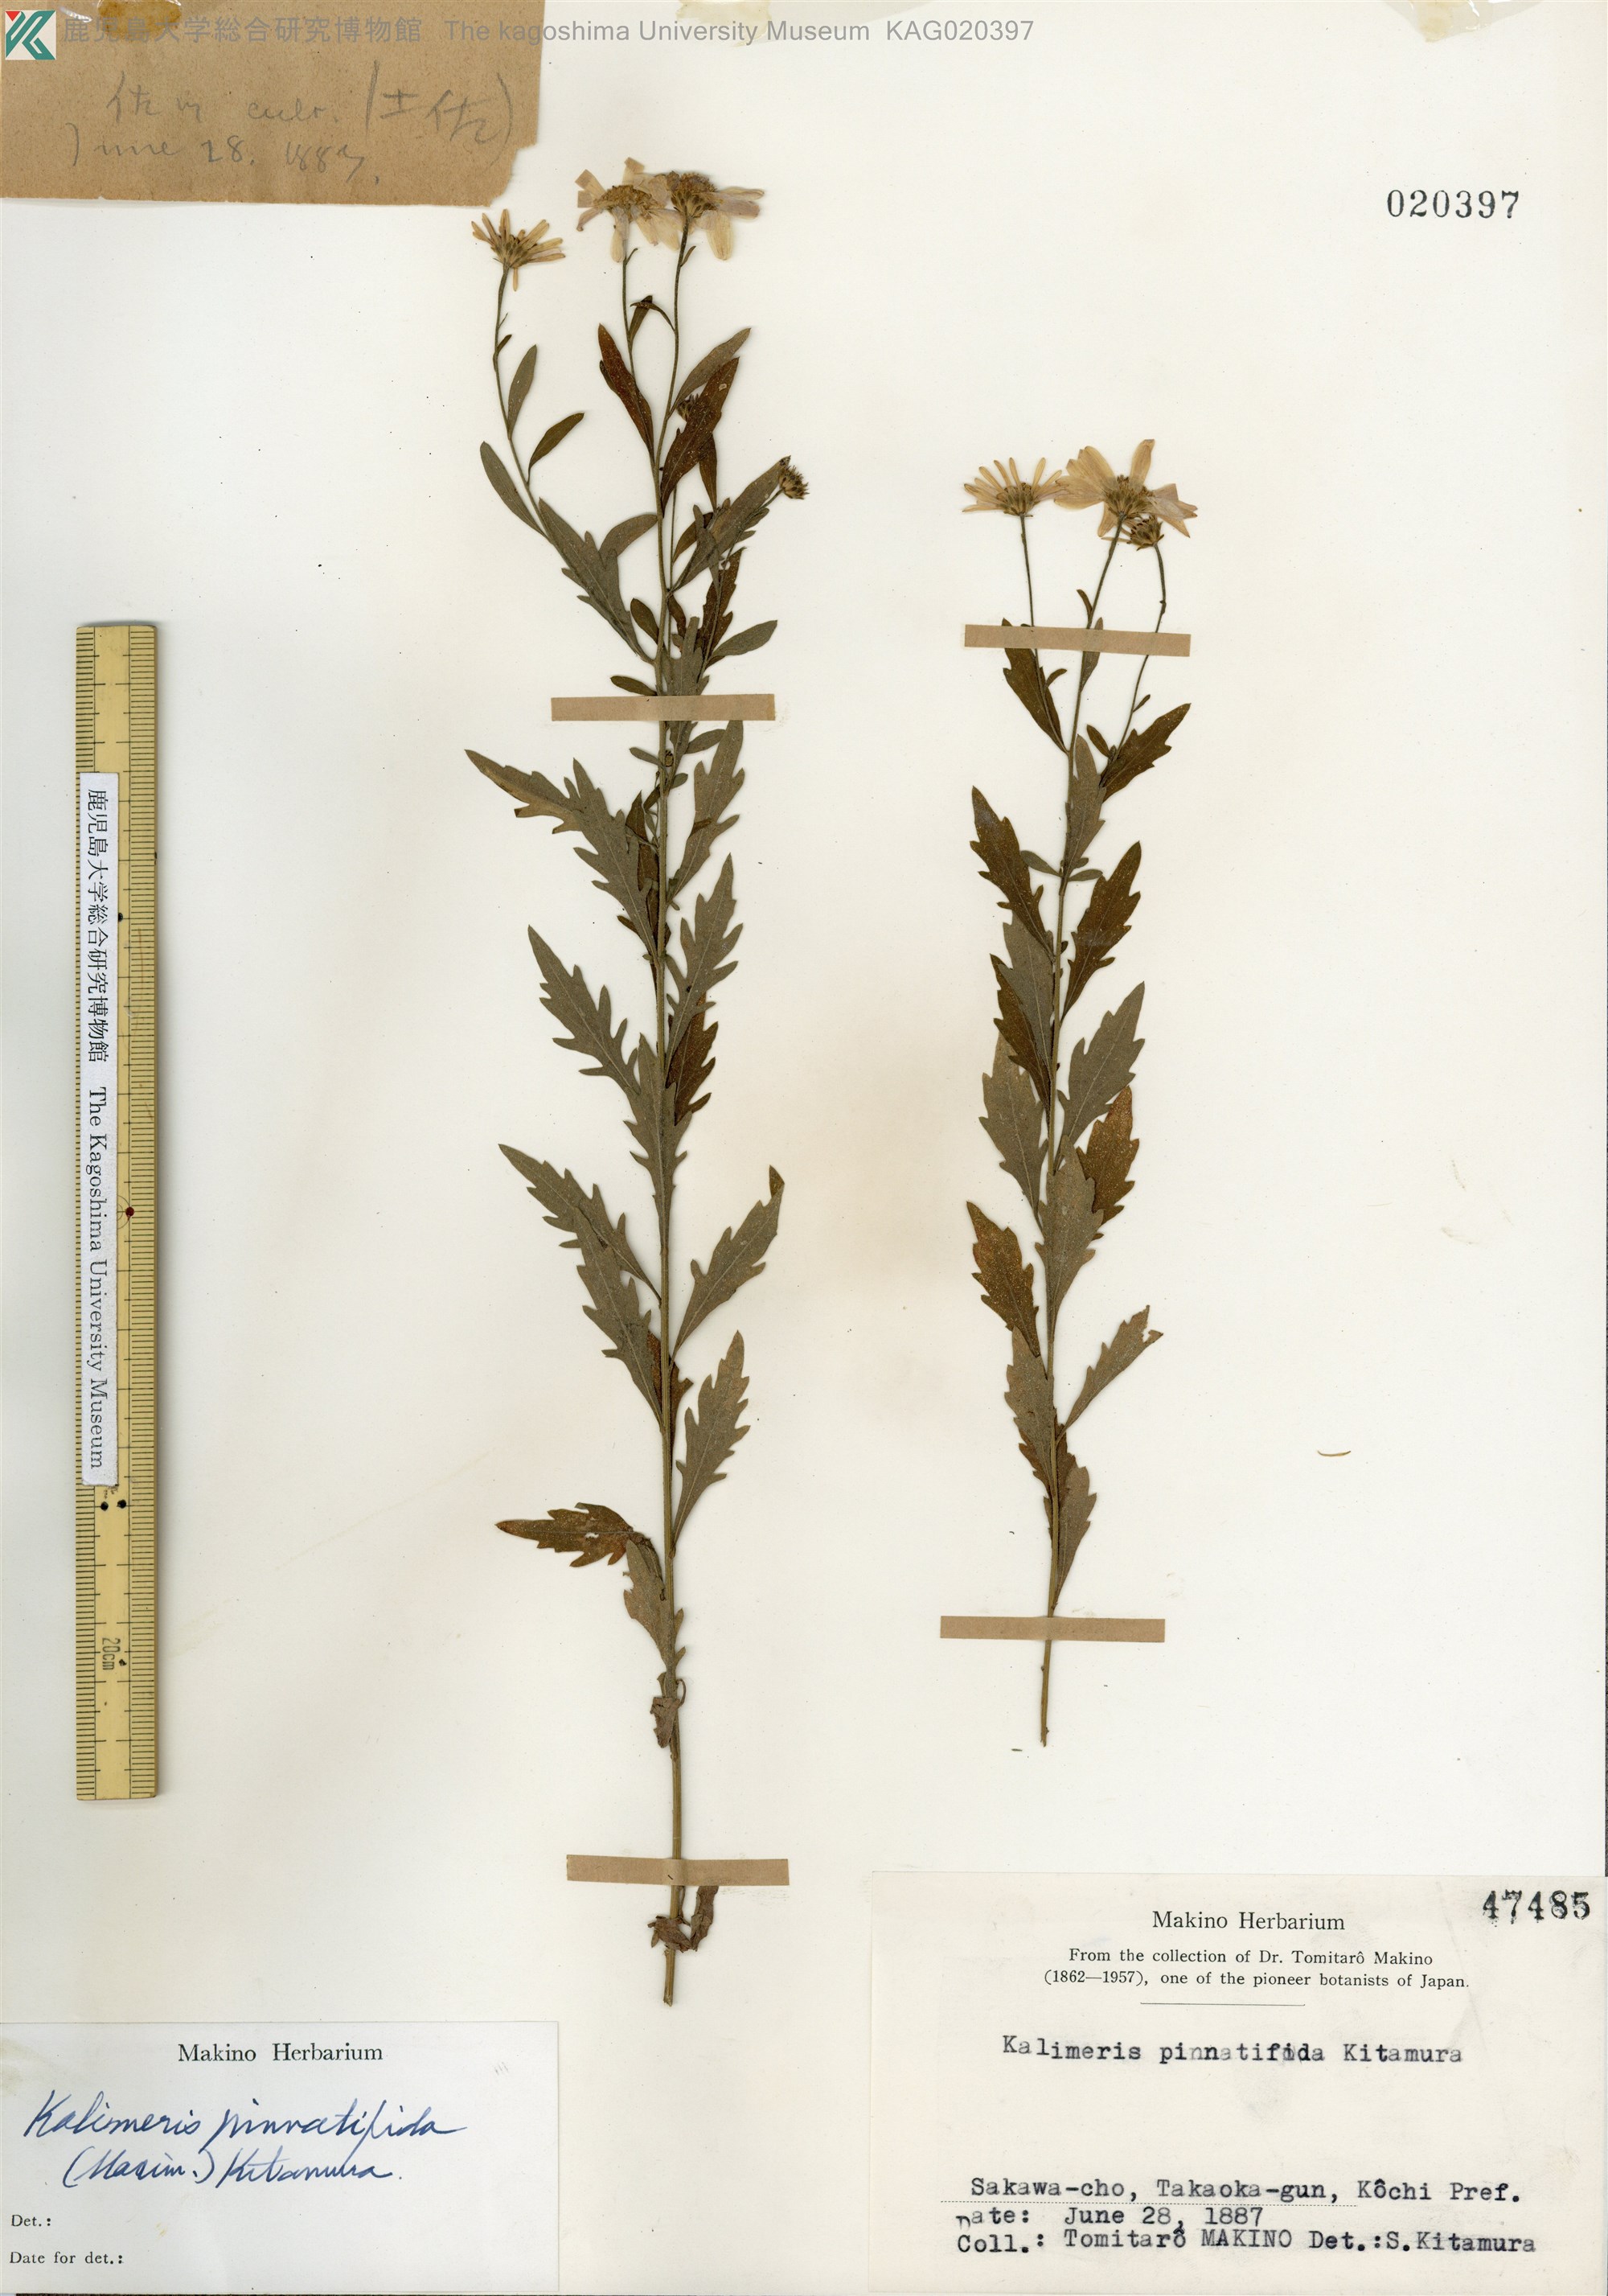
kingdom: Plantae
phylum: Tracheophyta
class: Magnoliopsida
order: Asterales
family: Asteraceae
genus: Kalimeris
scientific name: Kalimeris pinnatifida
